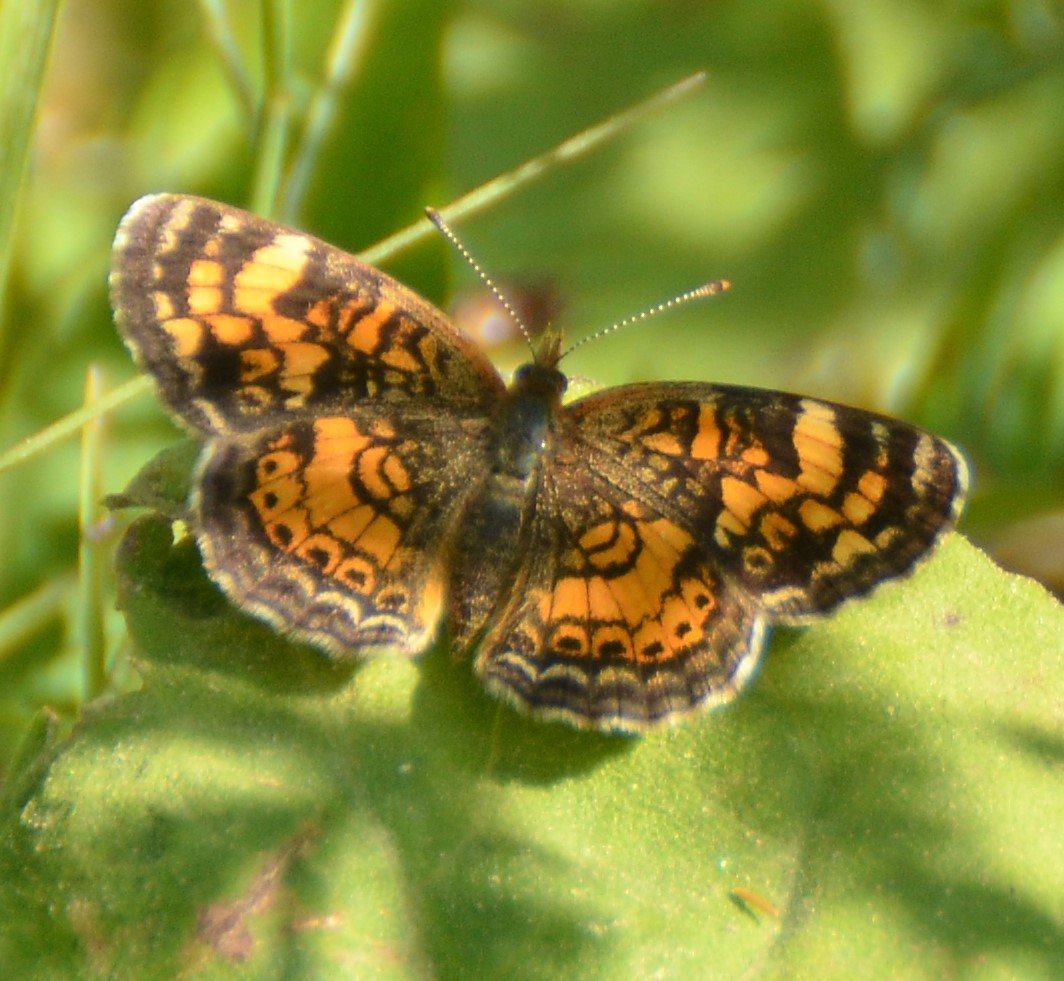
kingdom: Animalia
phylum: Arthropoda
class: Insecta
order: Lepidoptera
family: Nymphalidae
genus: Phyciodes
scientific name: Phyciodes tharos
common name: Northern Crescent
